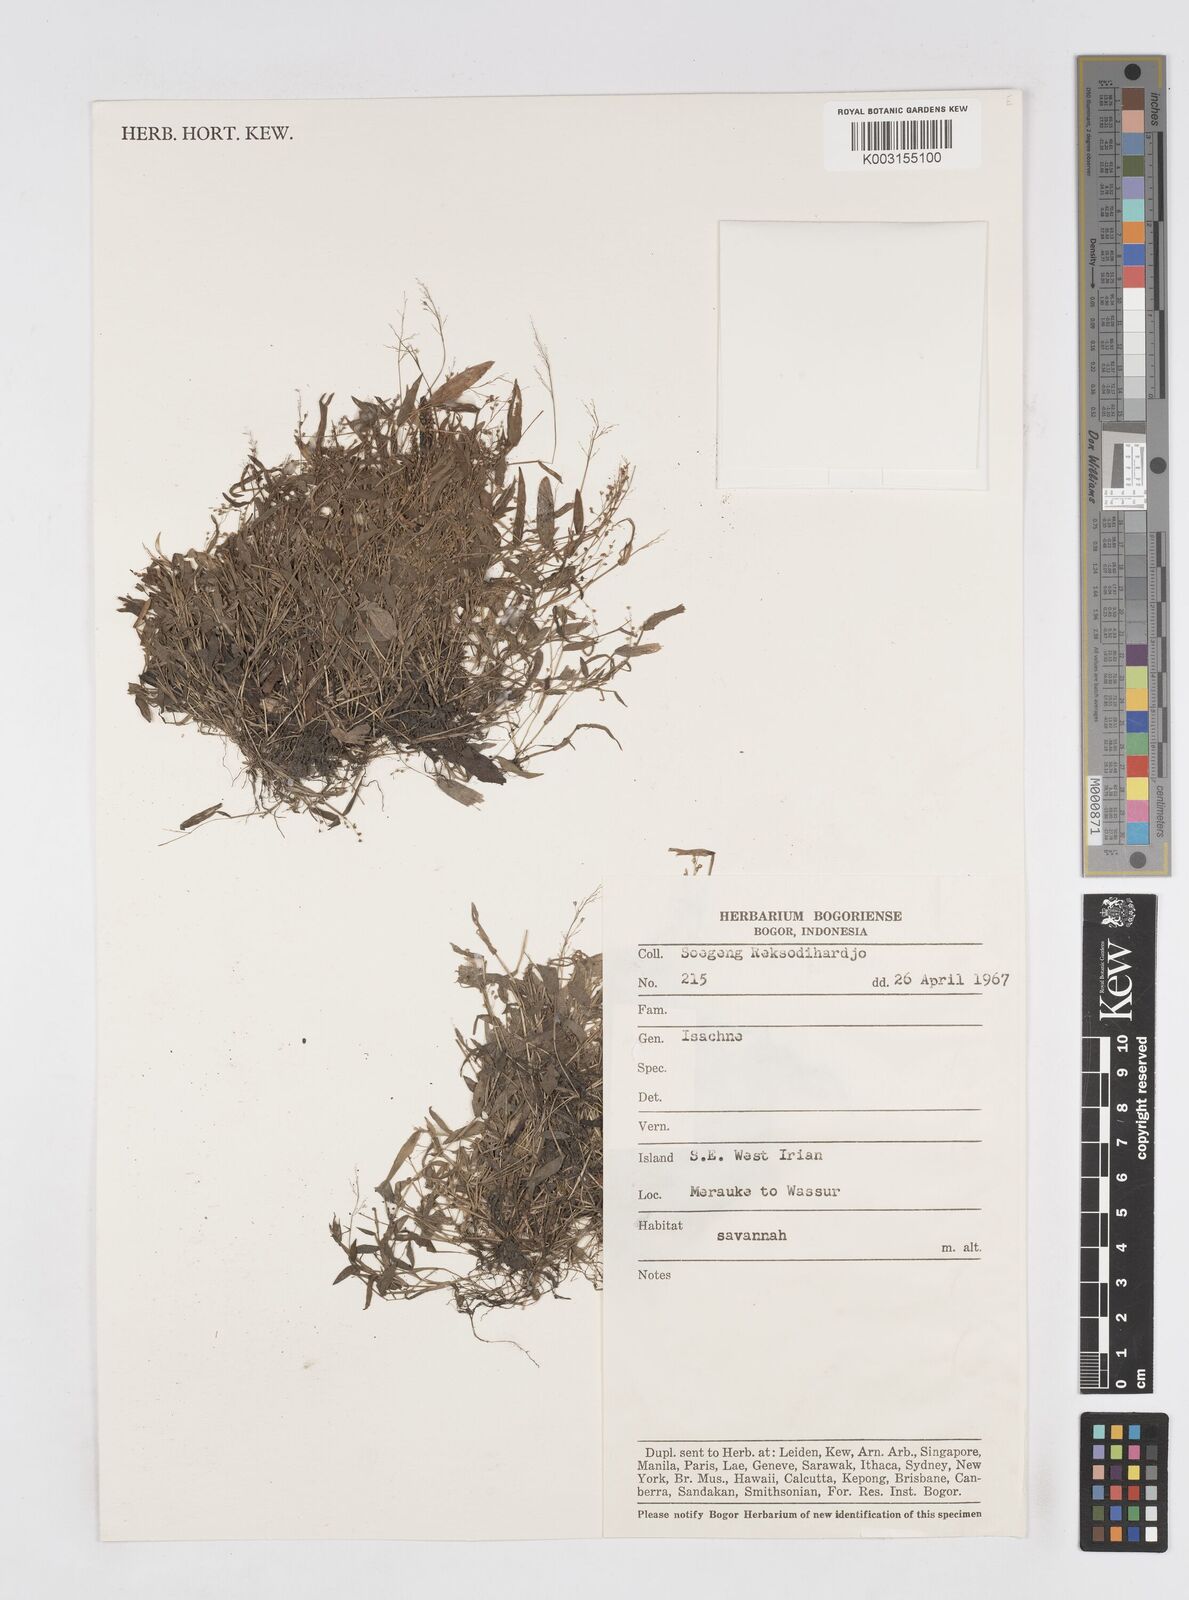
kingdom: Plantae
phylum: Tracheophyta
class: Liliopsida
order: Poales
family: Poaceae
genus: Isachne
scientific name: Isachne
